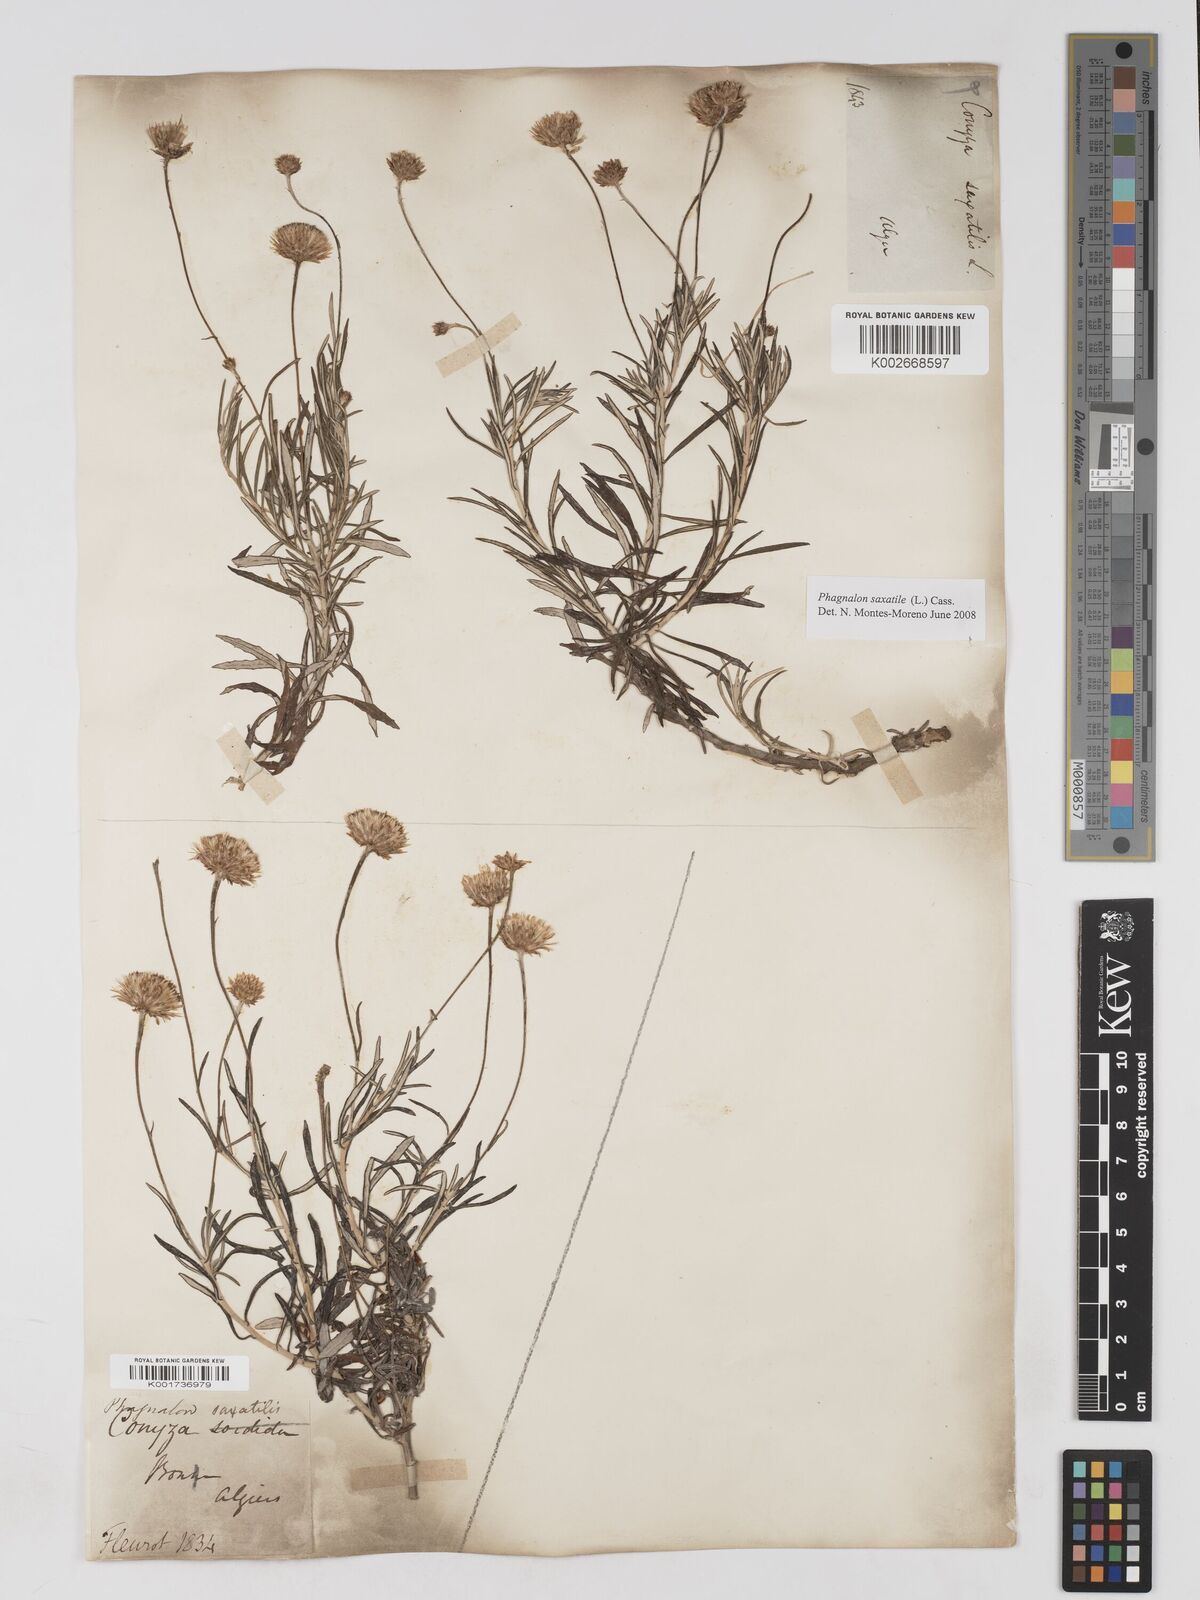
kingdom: Plantae
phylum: Tracheophyta
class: Magnoliopsida
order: Asterales
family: Asteraceae
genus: Phagnalon
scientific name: Phagnalon saxatile
